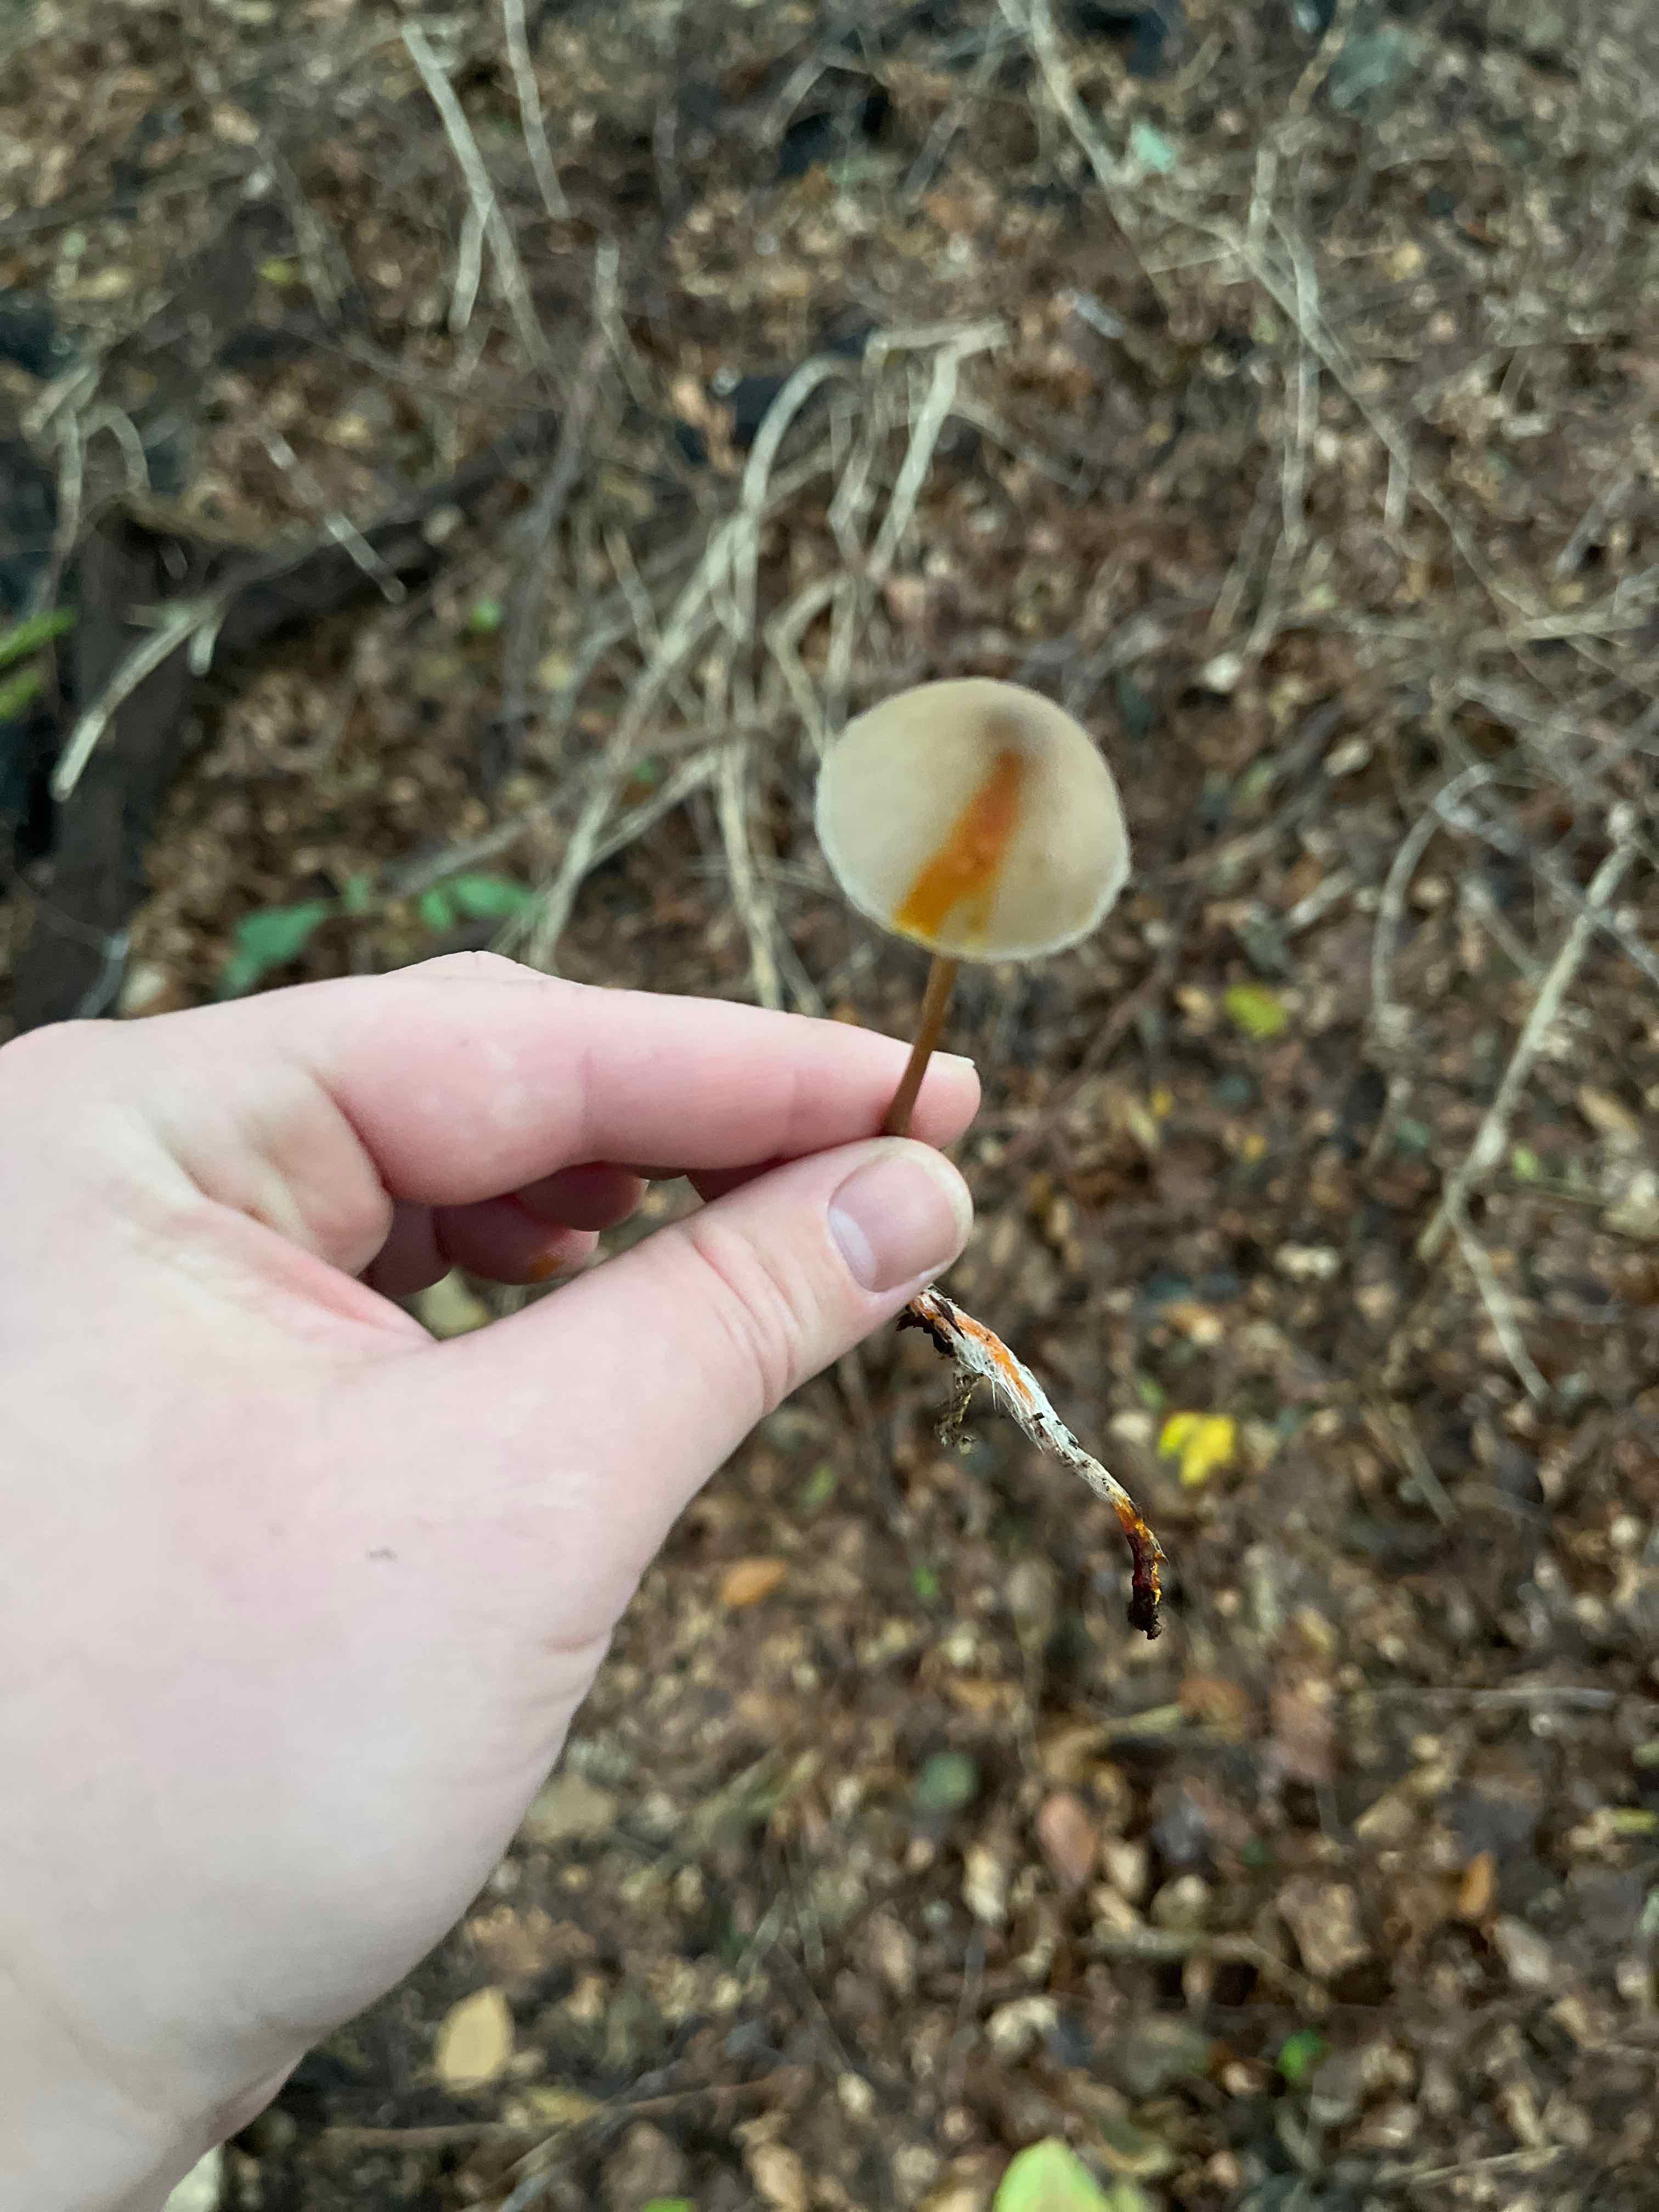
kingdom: Fungi
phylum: Basidiomycota
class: Agaricomycetes
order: Agaricales
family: Mycenaceae
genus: Mycena
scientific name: Mycena crocata
